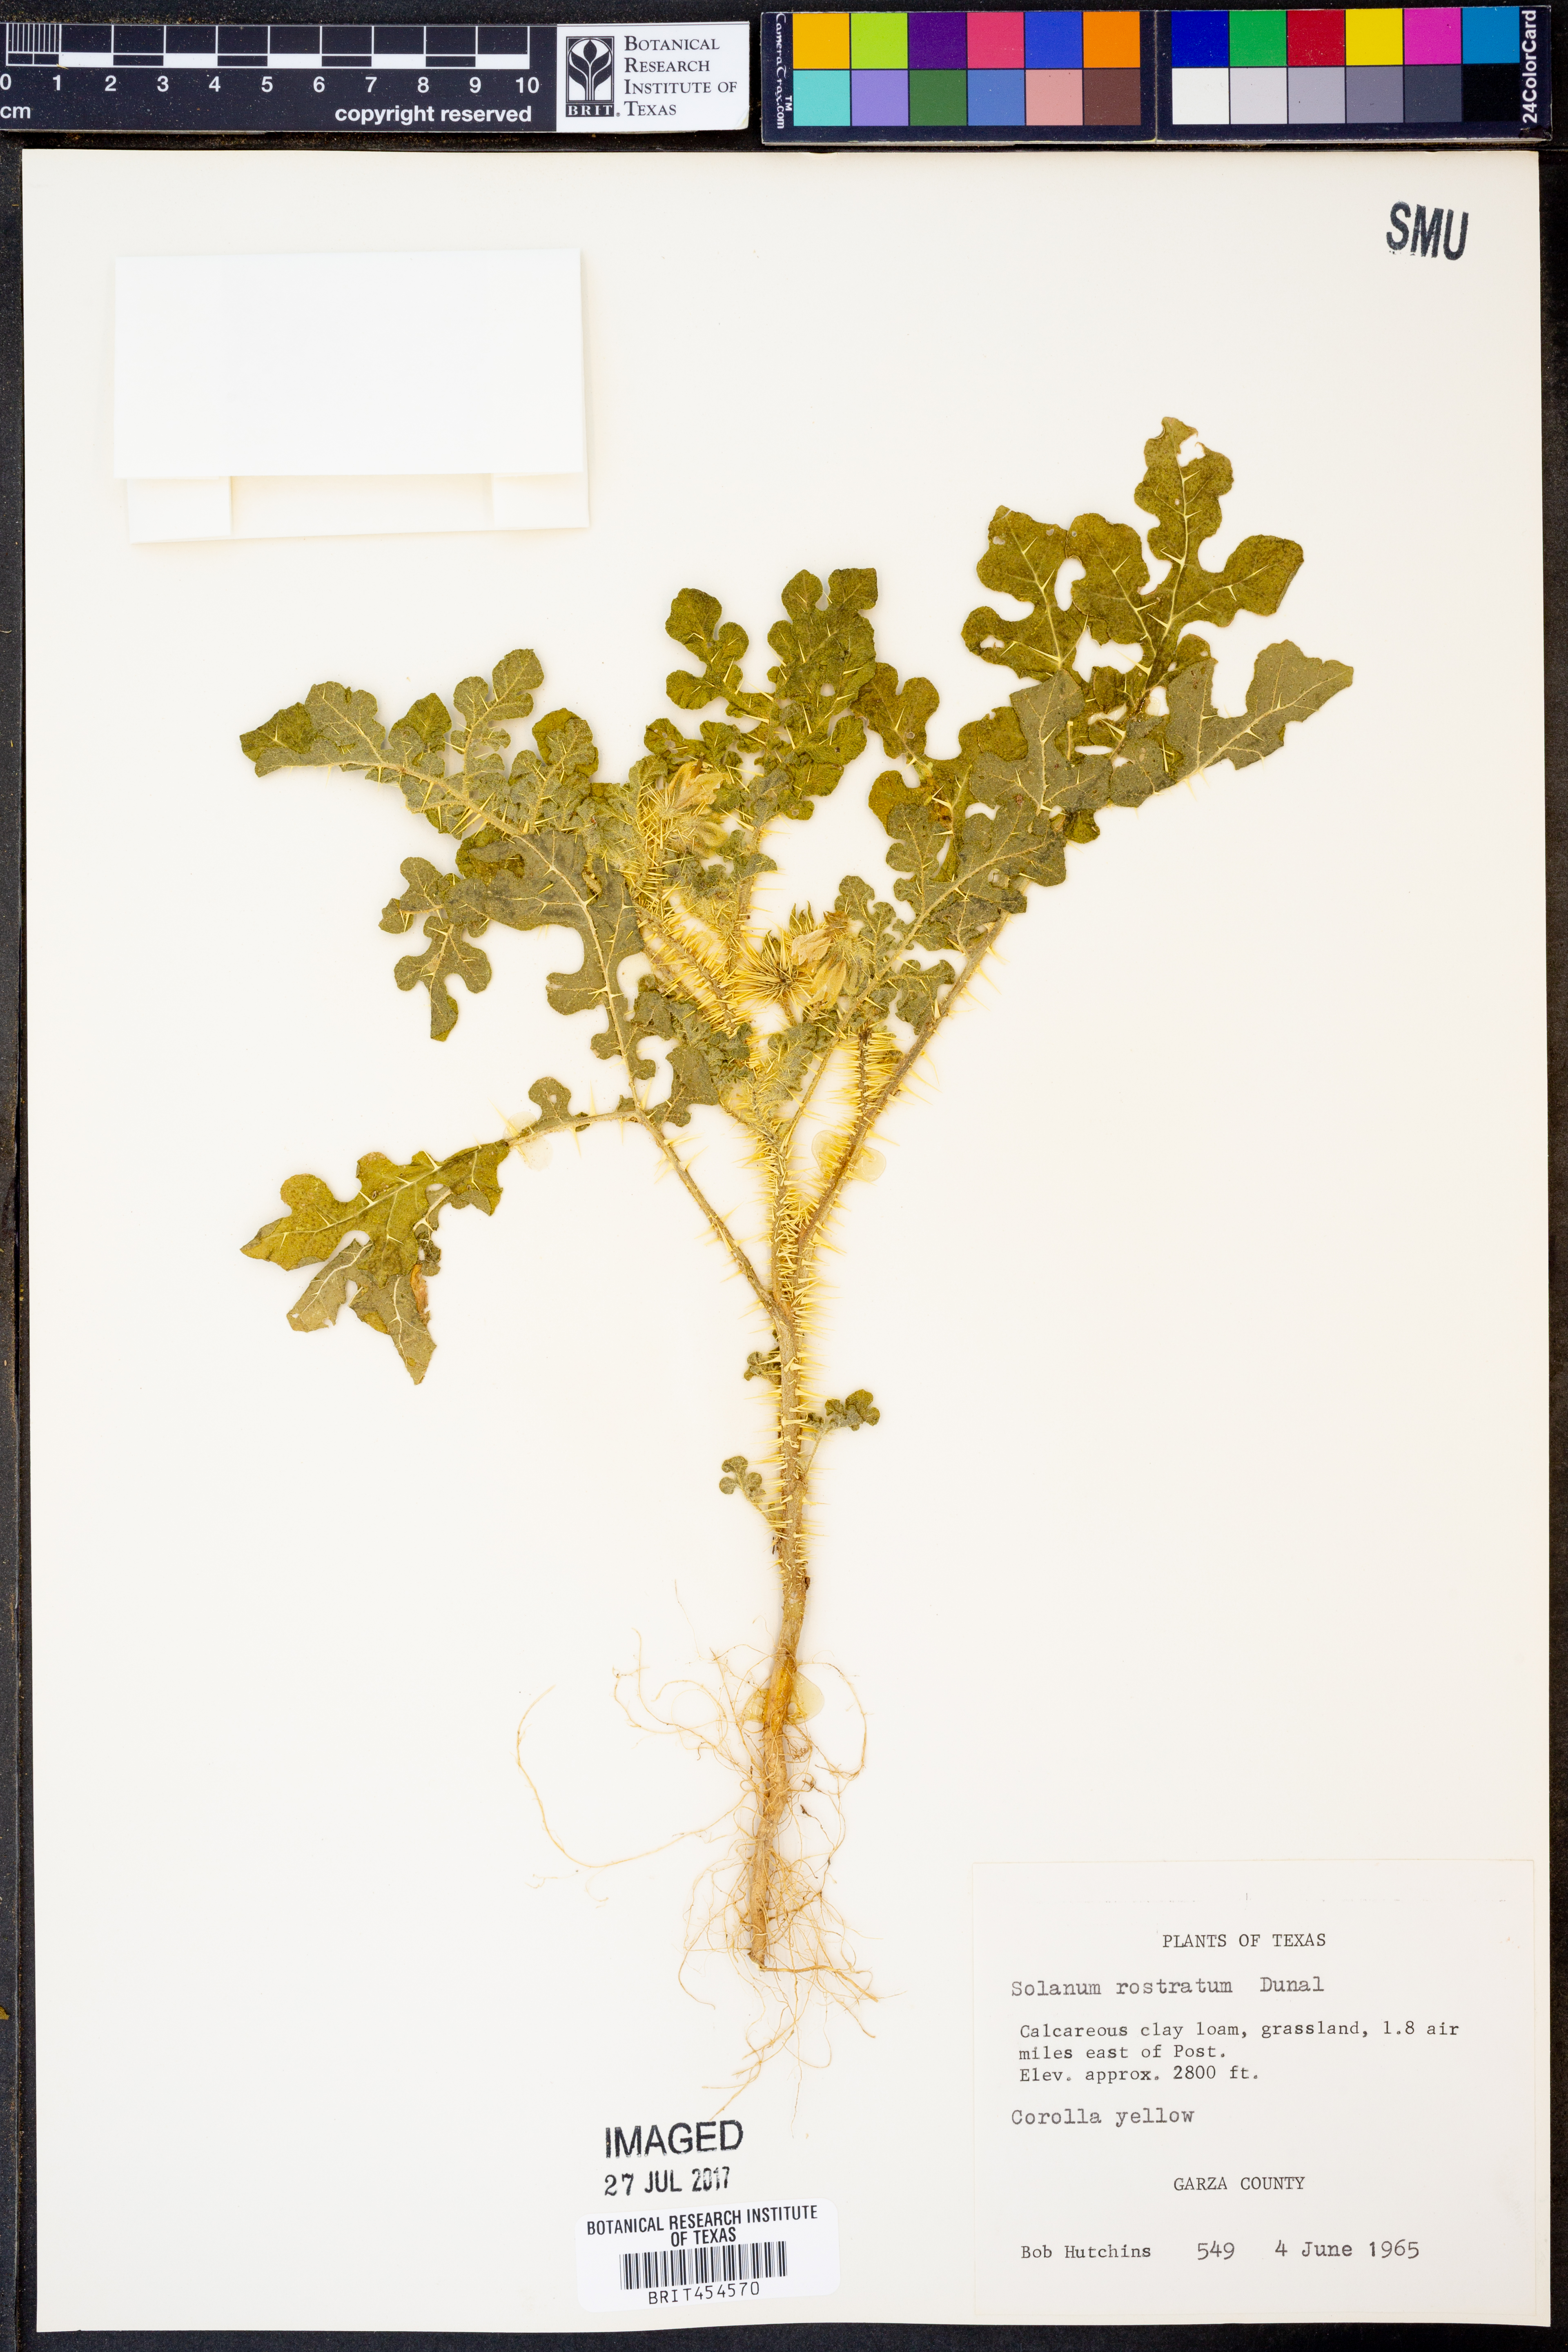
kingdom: Plantae
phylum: Tracheophyta
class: Magnoliopsida
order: Solanales
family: Solanaceae
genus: Solanum
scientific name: Solanum angustifolium
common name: Buffalobur nightshade
